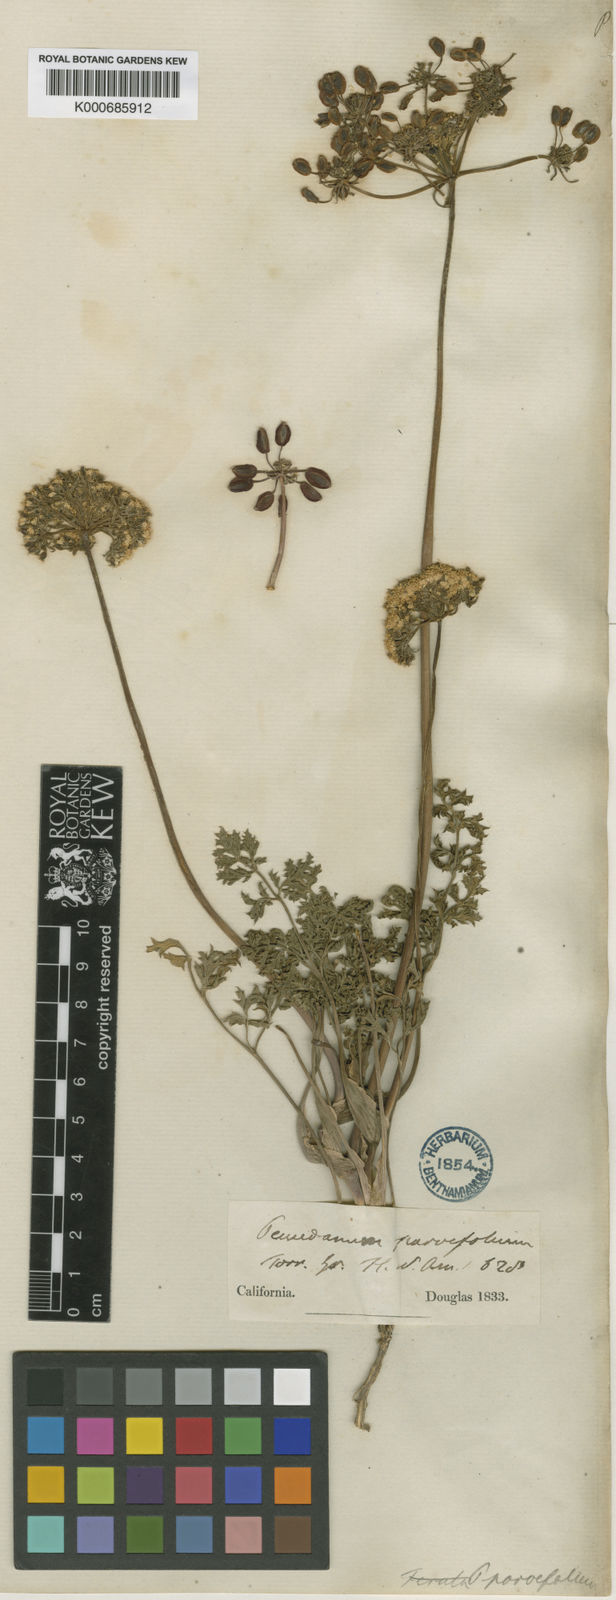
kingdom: Plantae
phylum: Tracheophyta
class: Magnoliopsida
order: Apiales
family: Apiaceae
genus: Lomatium
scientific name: Lomatium parvifolium
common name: Small-leaf lomatium
